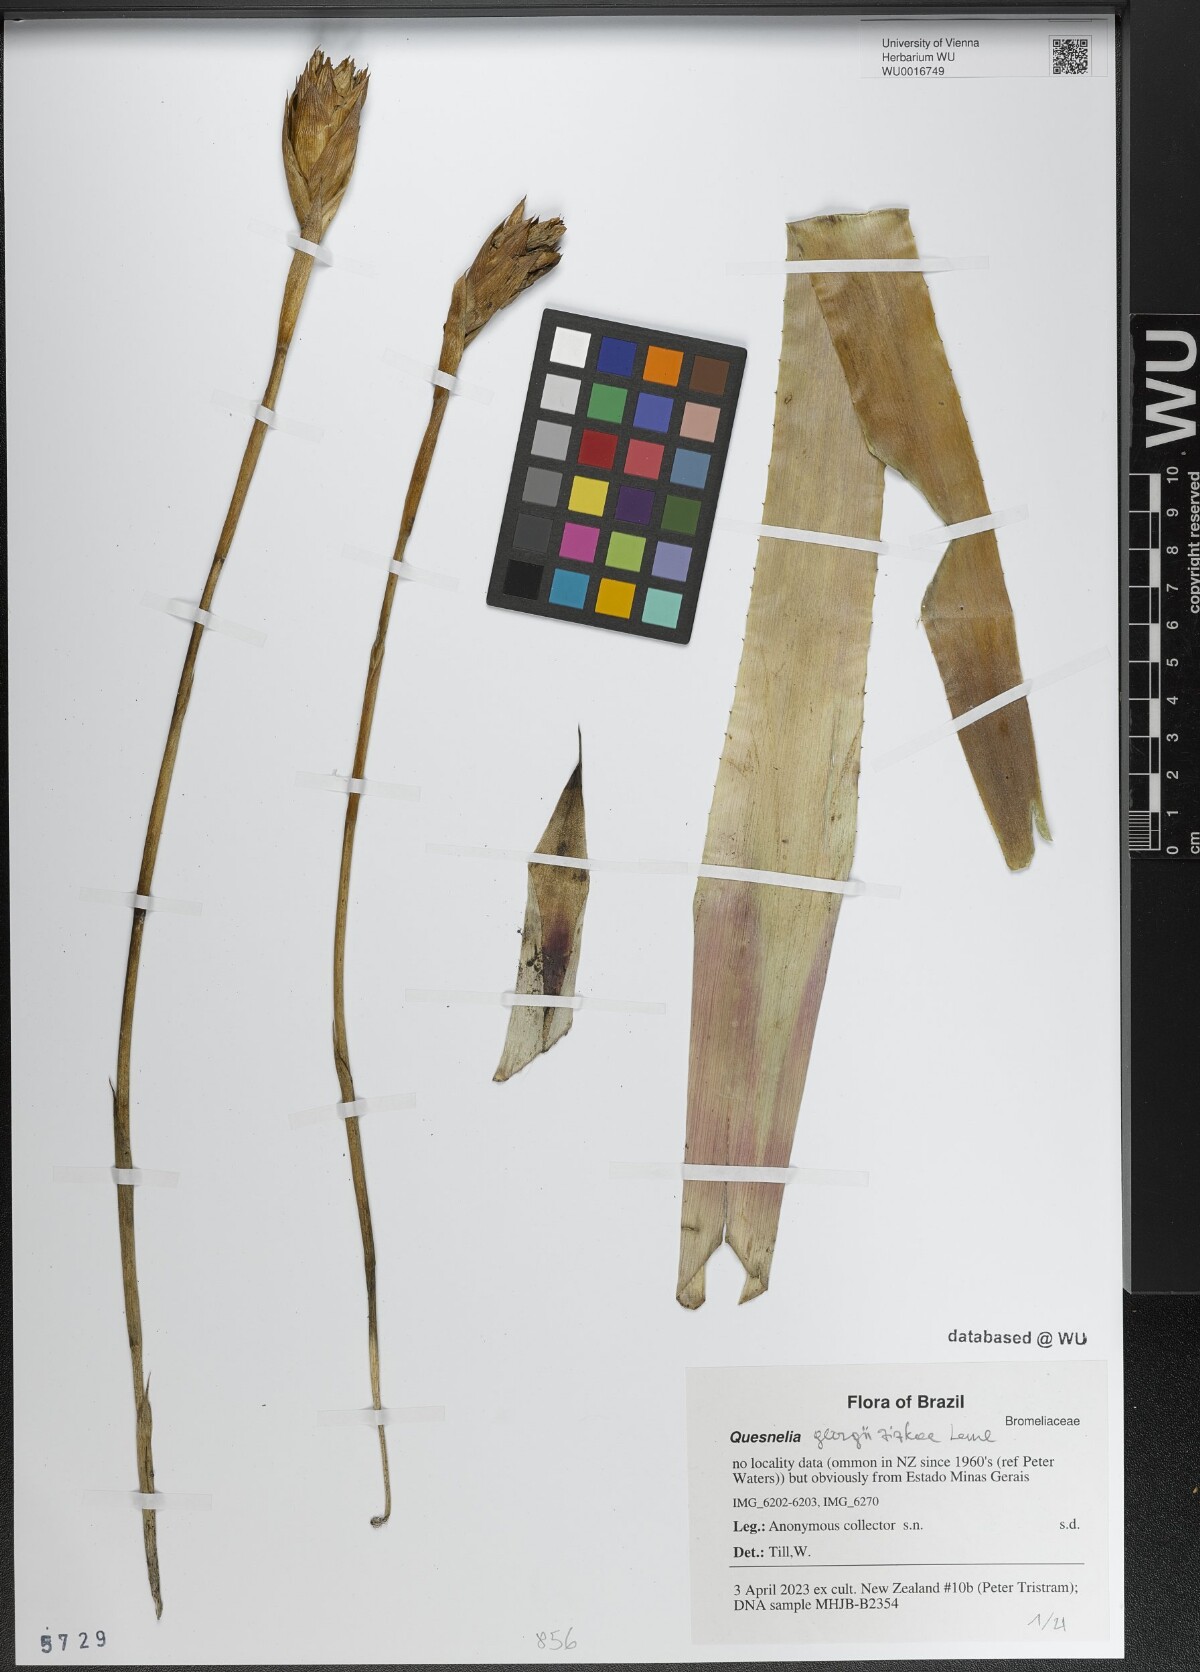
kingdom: Plantae
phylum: Tracheophyta
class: Liliopsida
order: Poales
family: Bromeliaceae
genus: Quesnelia
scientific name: Quesnelia
